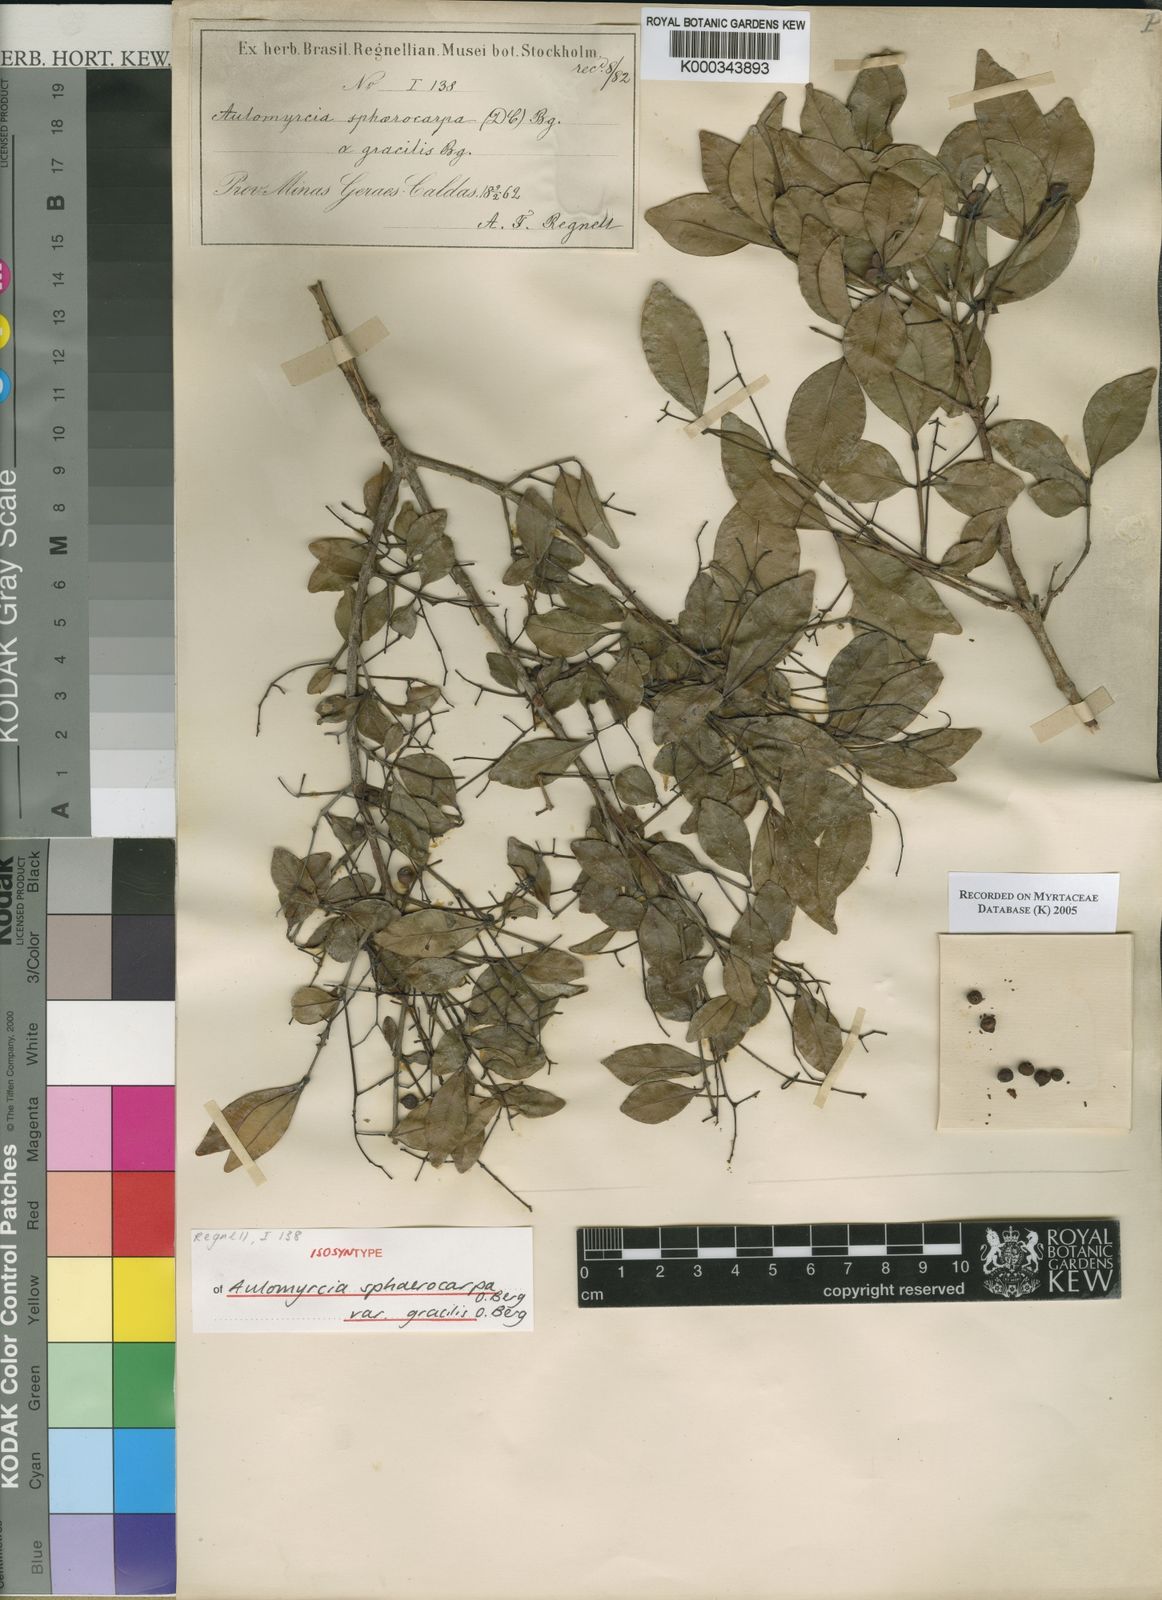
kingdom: Plantae
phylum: Tracheophyta
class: Magnoliopsida
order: Myrtales
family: Myrtaceae
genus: Myrcia
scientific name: Myrcia multiflora
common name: Pedra hume
